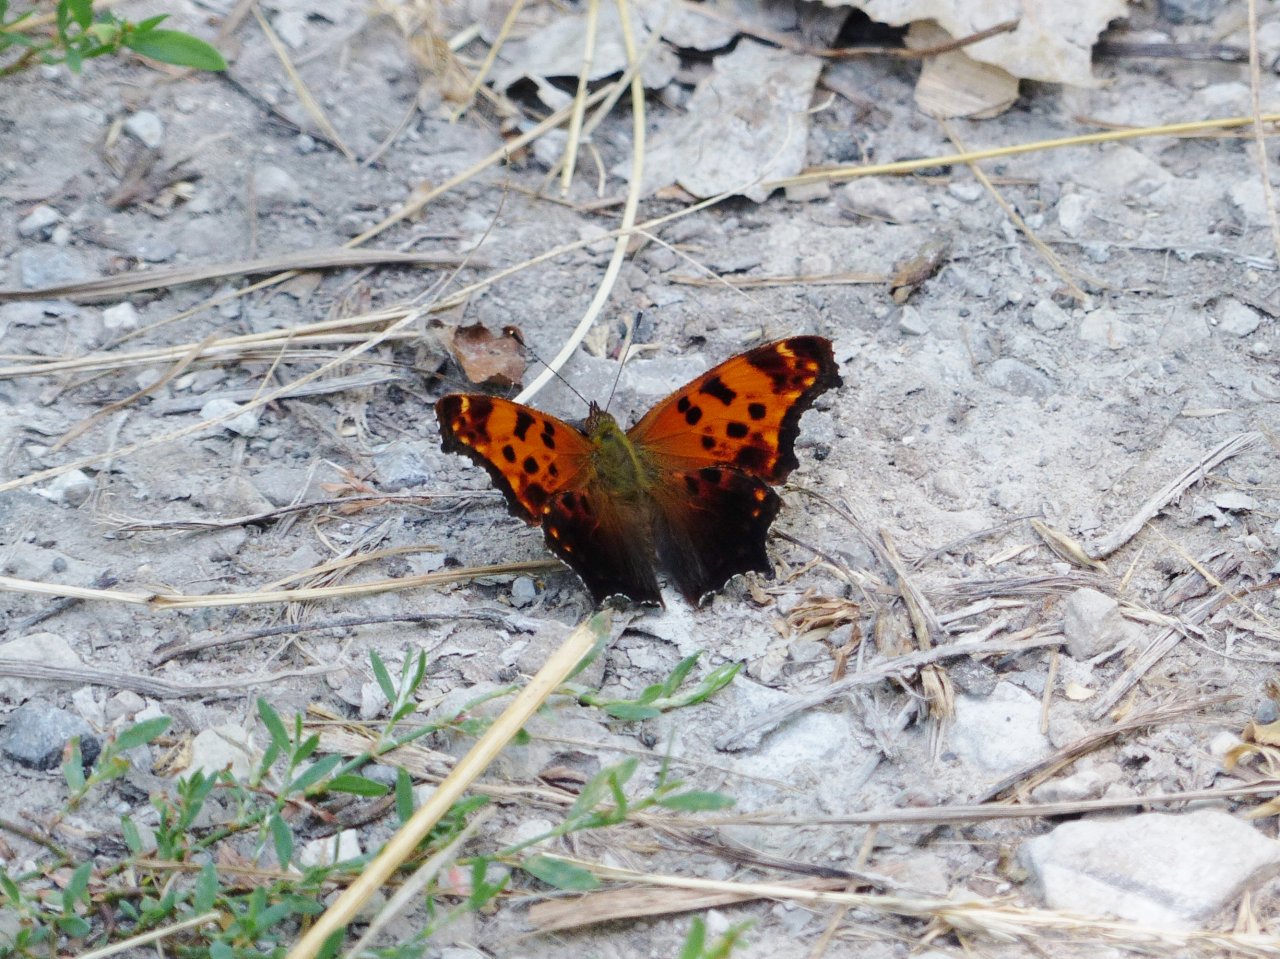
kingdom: Animalia
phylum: Arthropoda
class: Insecta
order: Lepidoptera
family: Nymphalidae
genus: Polygonia
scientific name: Polygonia comma
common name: Eastern Comma
